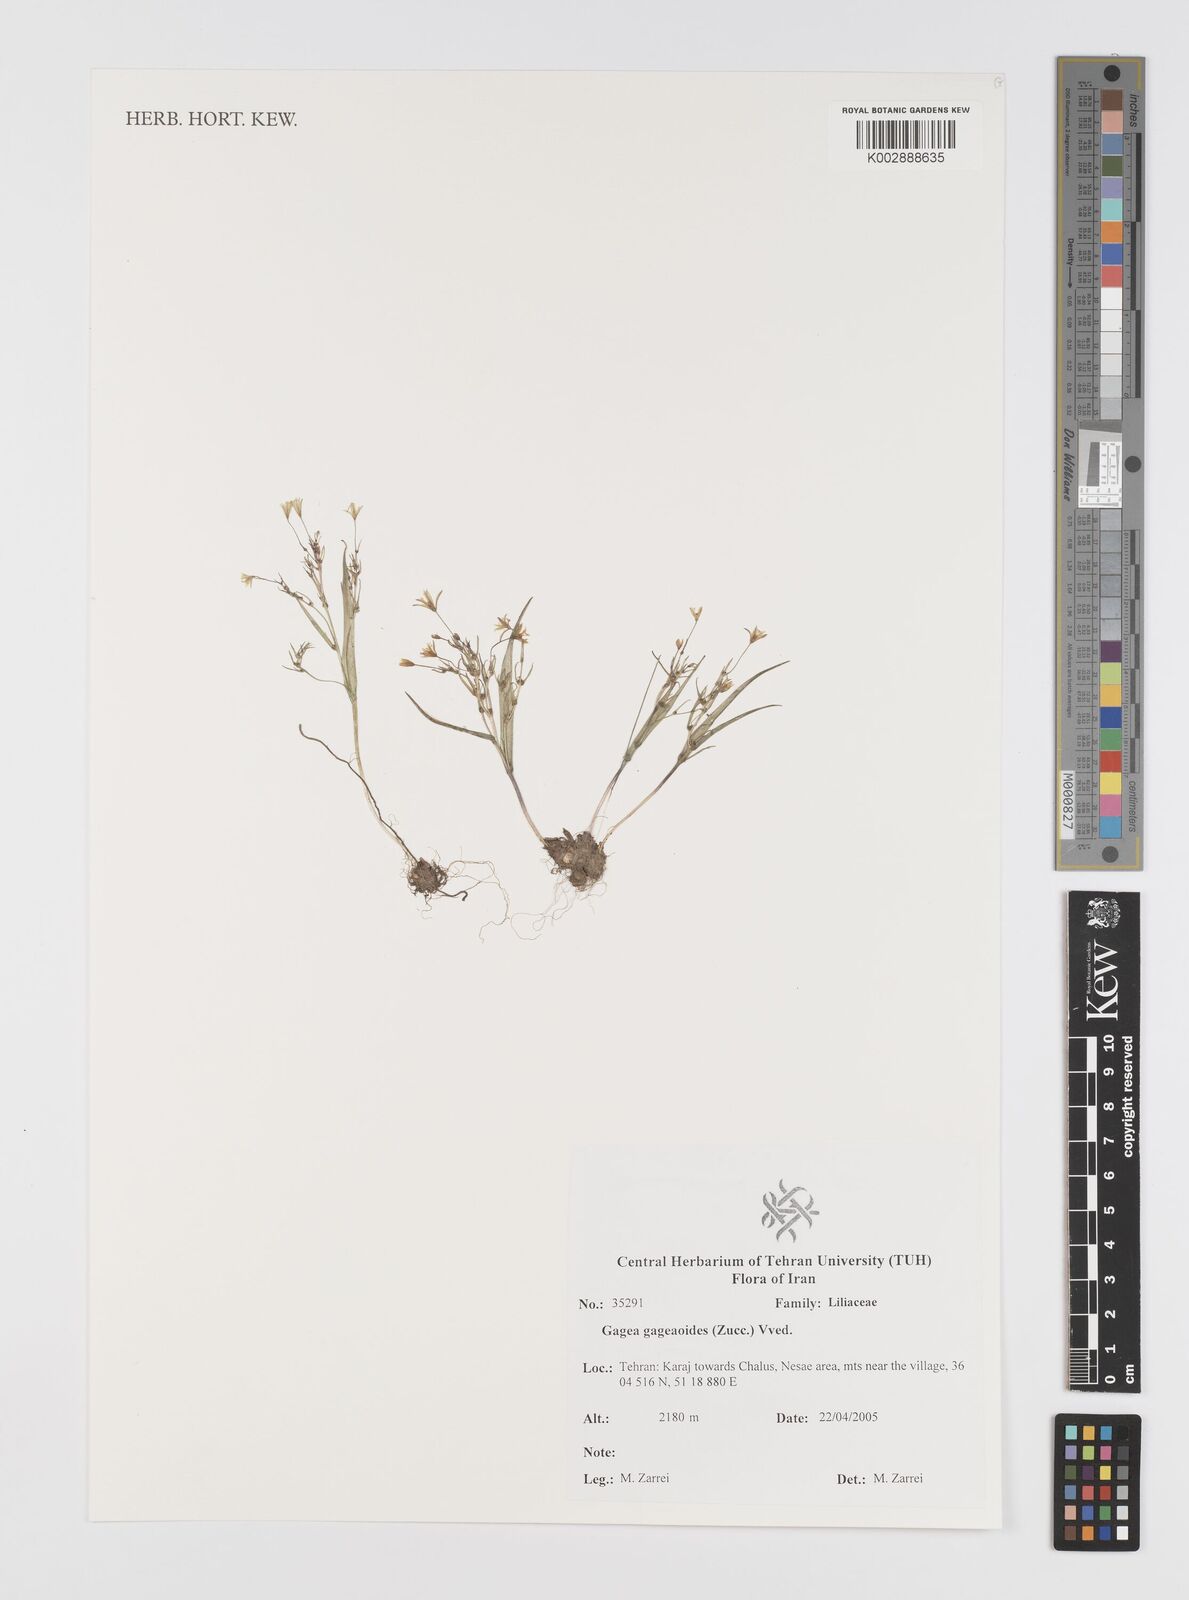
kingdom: Plantae
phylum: Tracheophyta
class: Liliopsida
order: Liliales
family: Liliaceae
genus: Gagea
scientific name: Gagea gageoides
